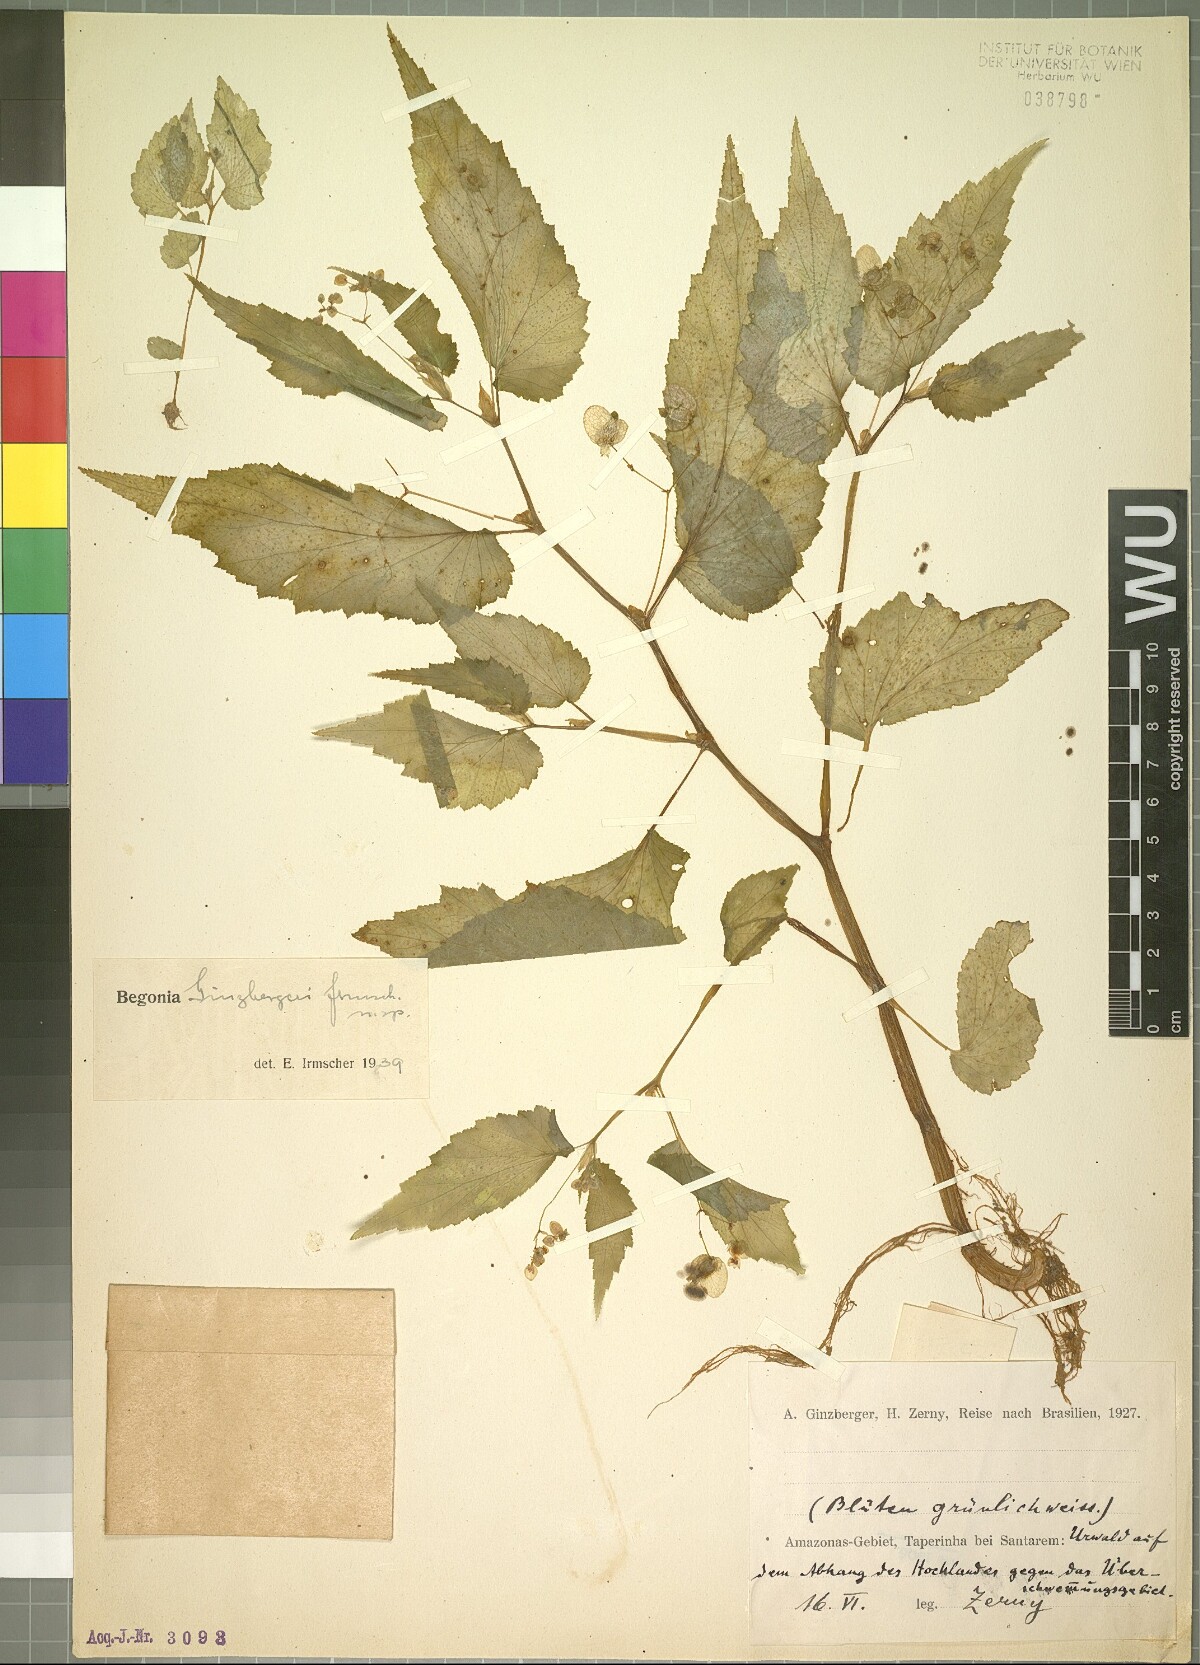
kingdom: Plantae
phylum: Tracheophyta
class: Magnoliopsida
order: Cucurbitales
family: Begoniaceae
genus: Begonia
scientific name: Begonia
